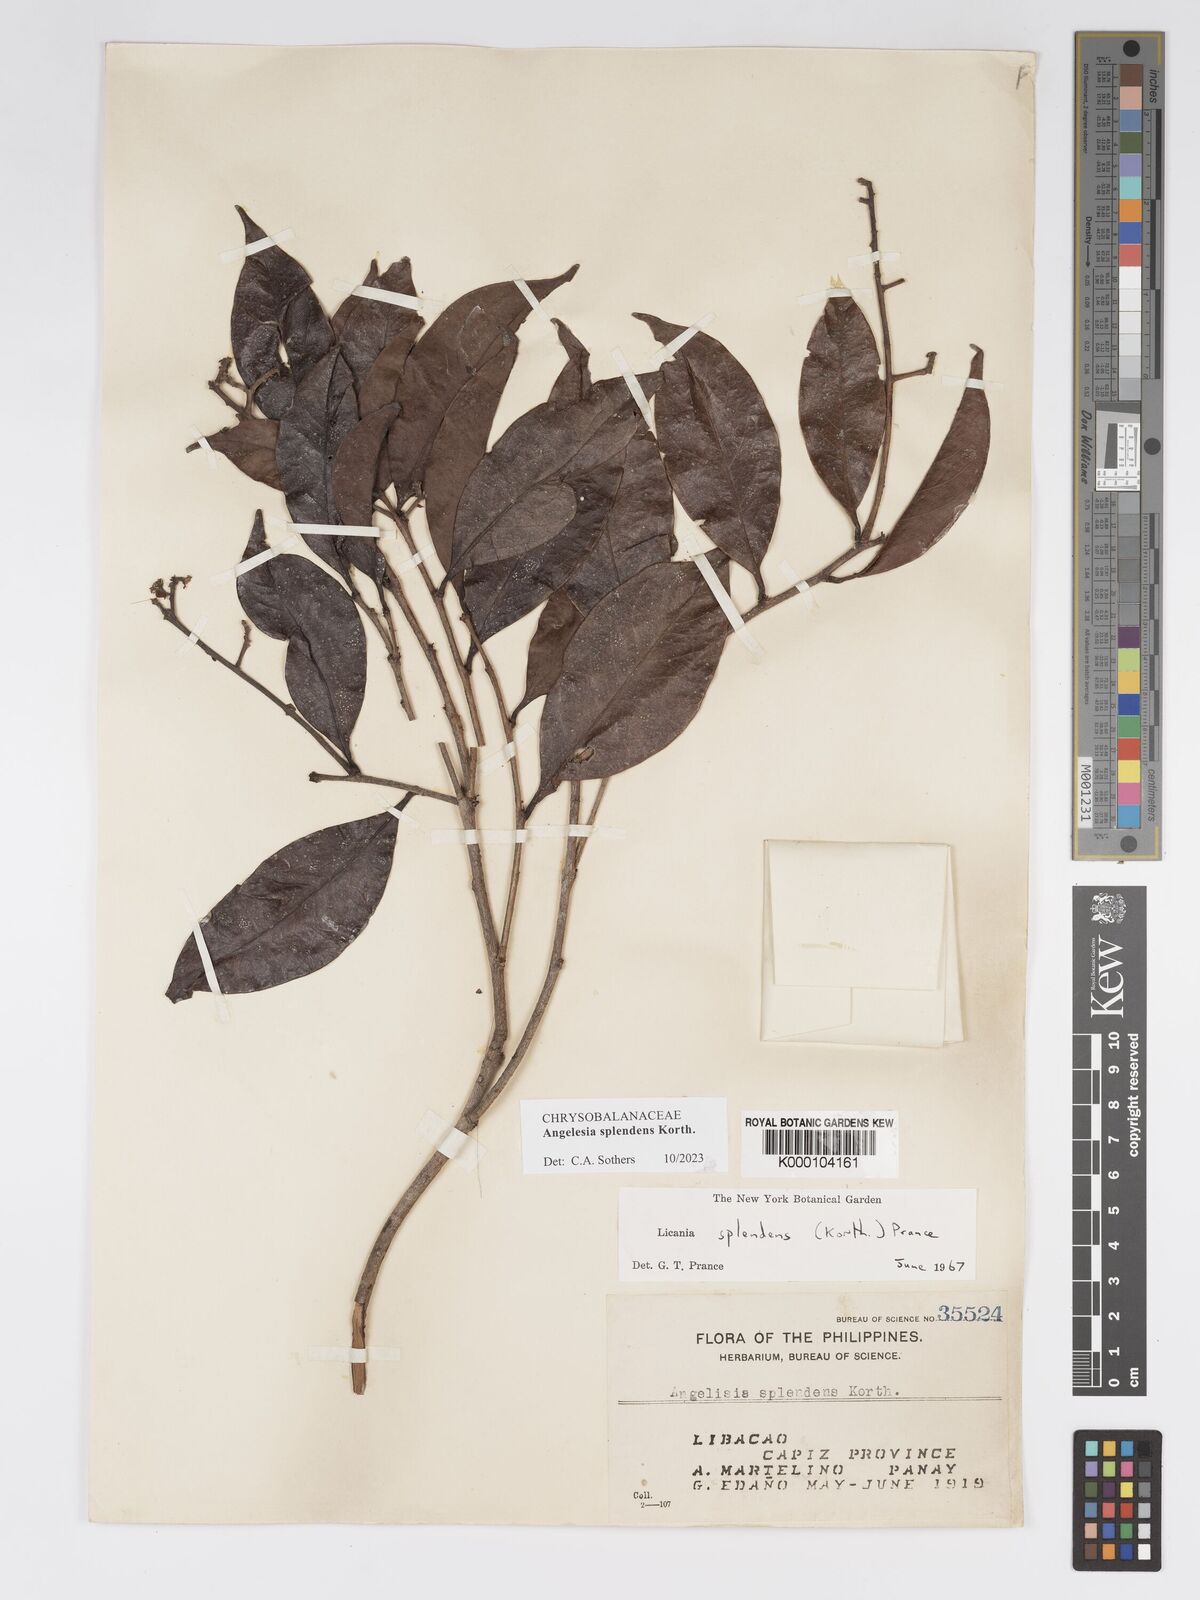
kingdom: Plantae
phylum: Tracheophyta
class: Magnoliopsida
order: Malpighiales
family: Chrysobalanaceae
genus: Angelesia
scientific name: Angelesia splendens
